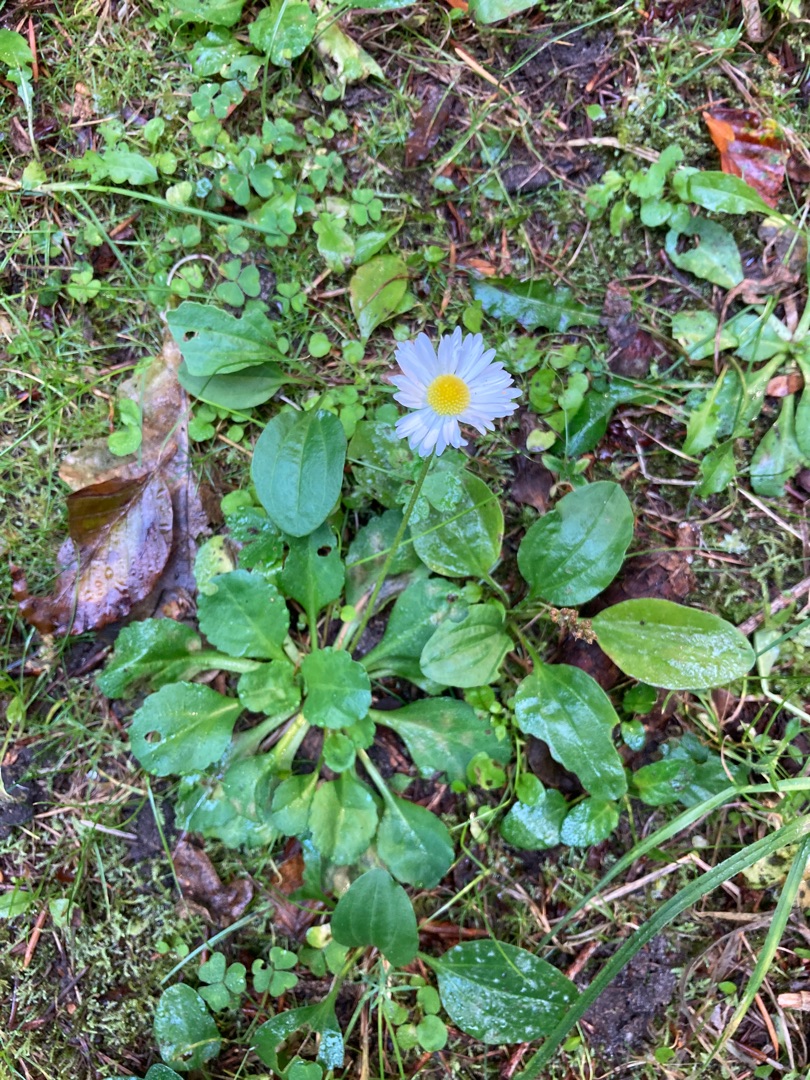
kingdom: Plantae
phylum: Tracheophyta
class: Magnoliopsida
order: Asterales
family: Asteraceae
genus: Bellis
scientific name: Bellis perennis
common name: Tusindfryd
